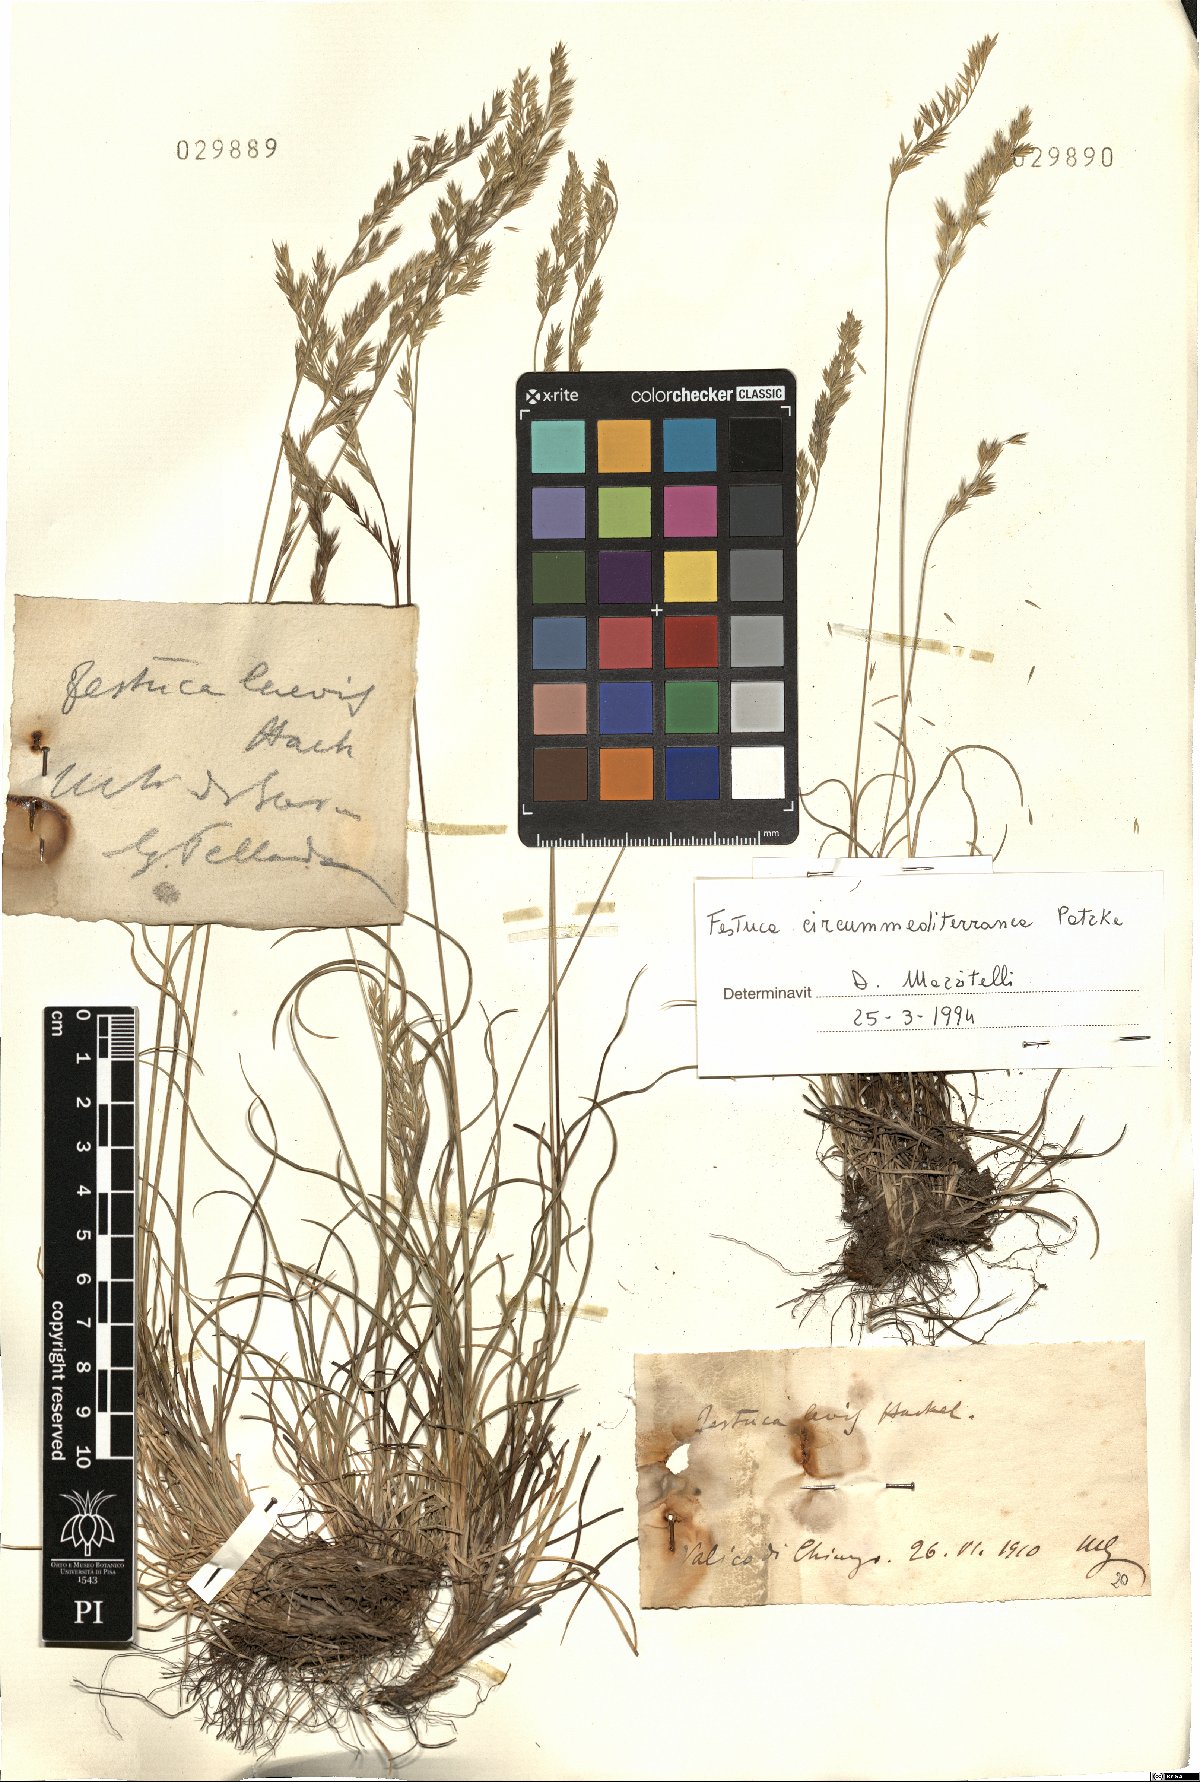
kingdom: Plantae
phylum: Tracheophyta
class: Liliopsida
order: Poales
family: Poaceae
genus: Festuca
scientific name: Festuca circummediterranea
